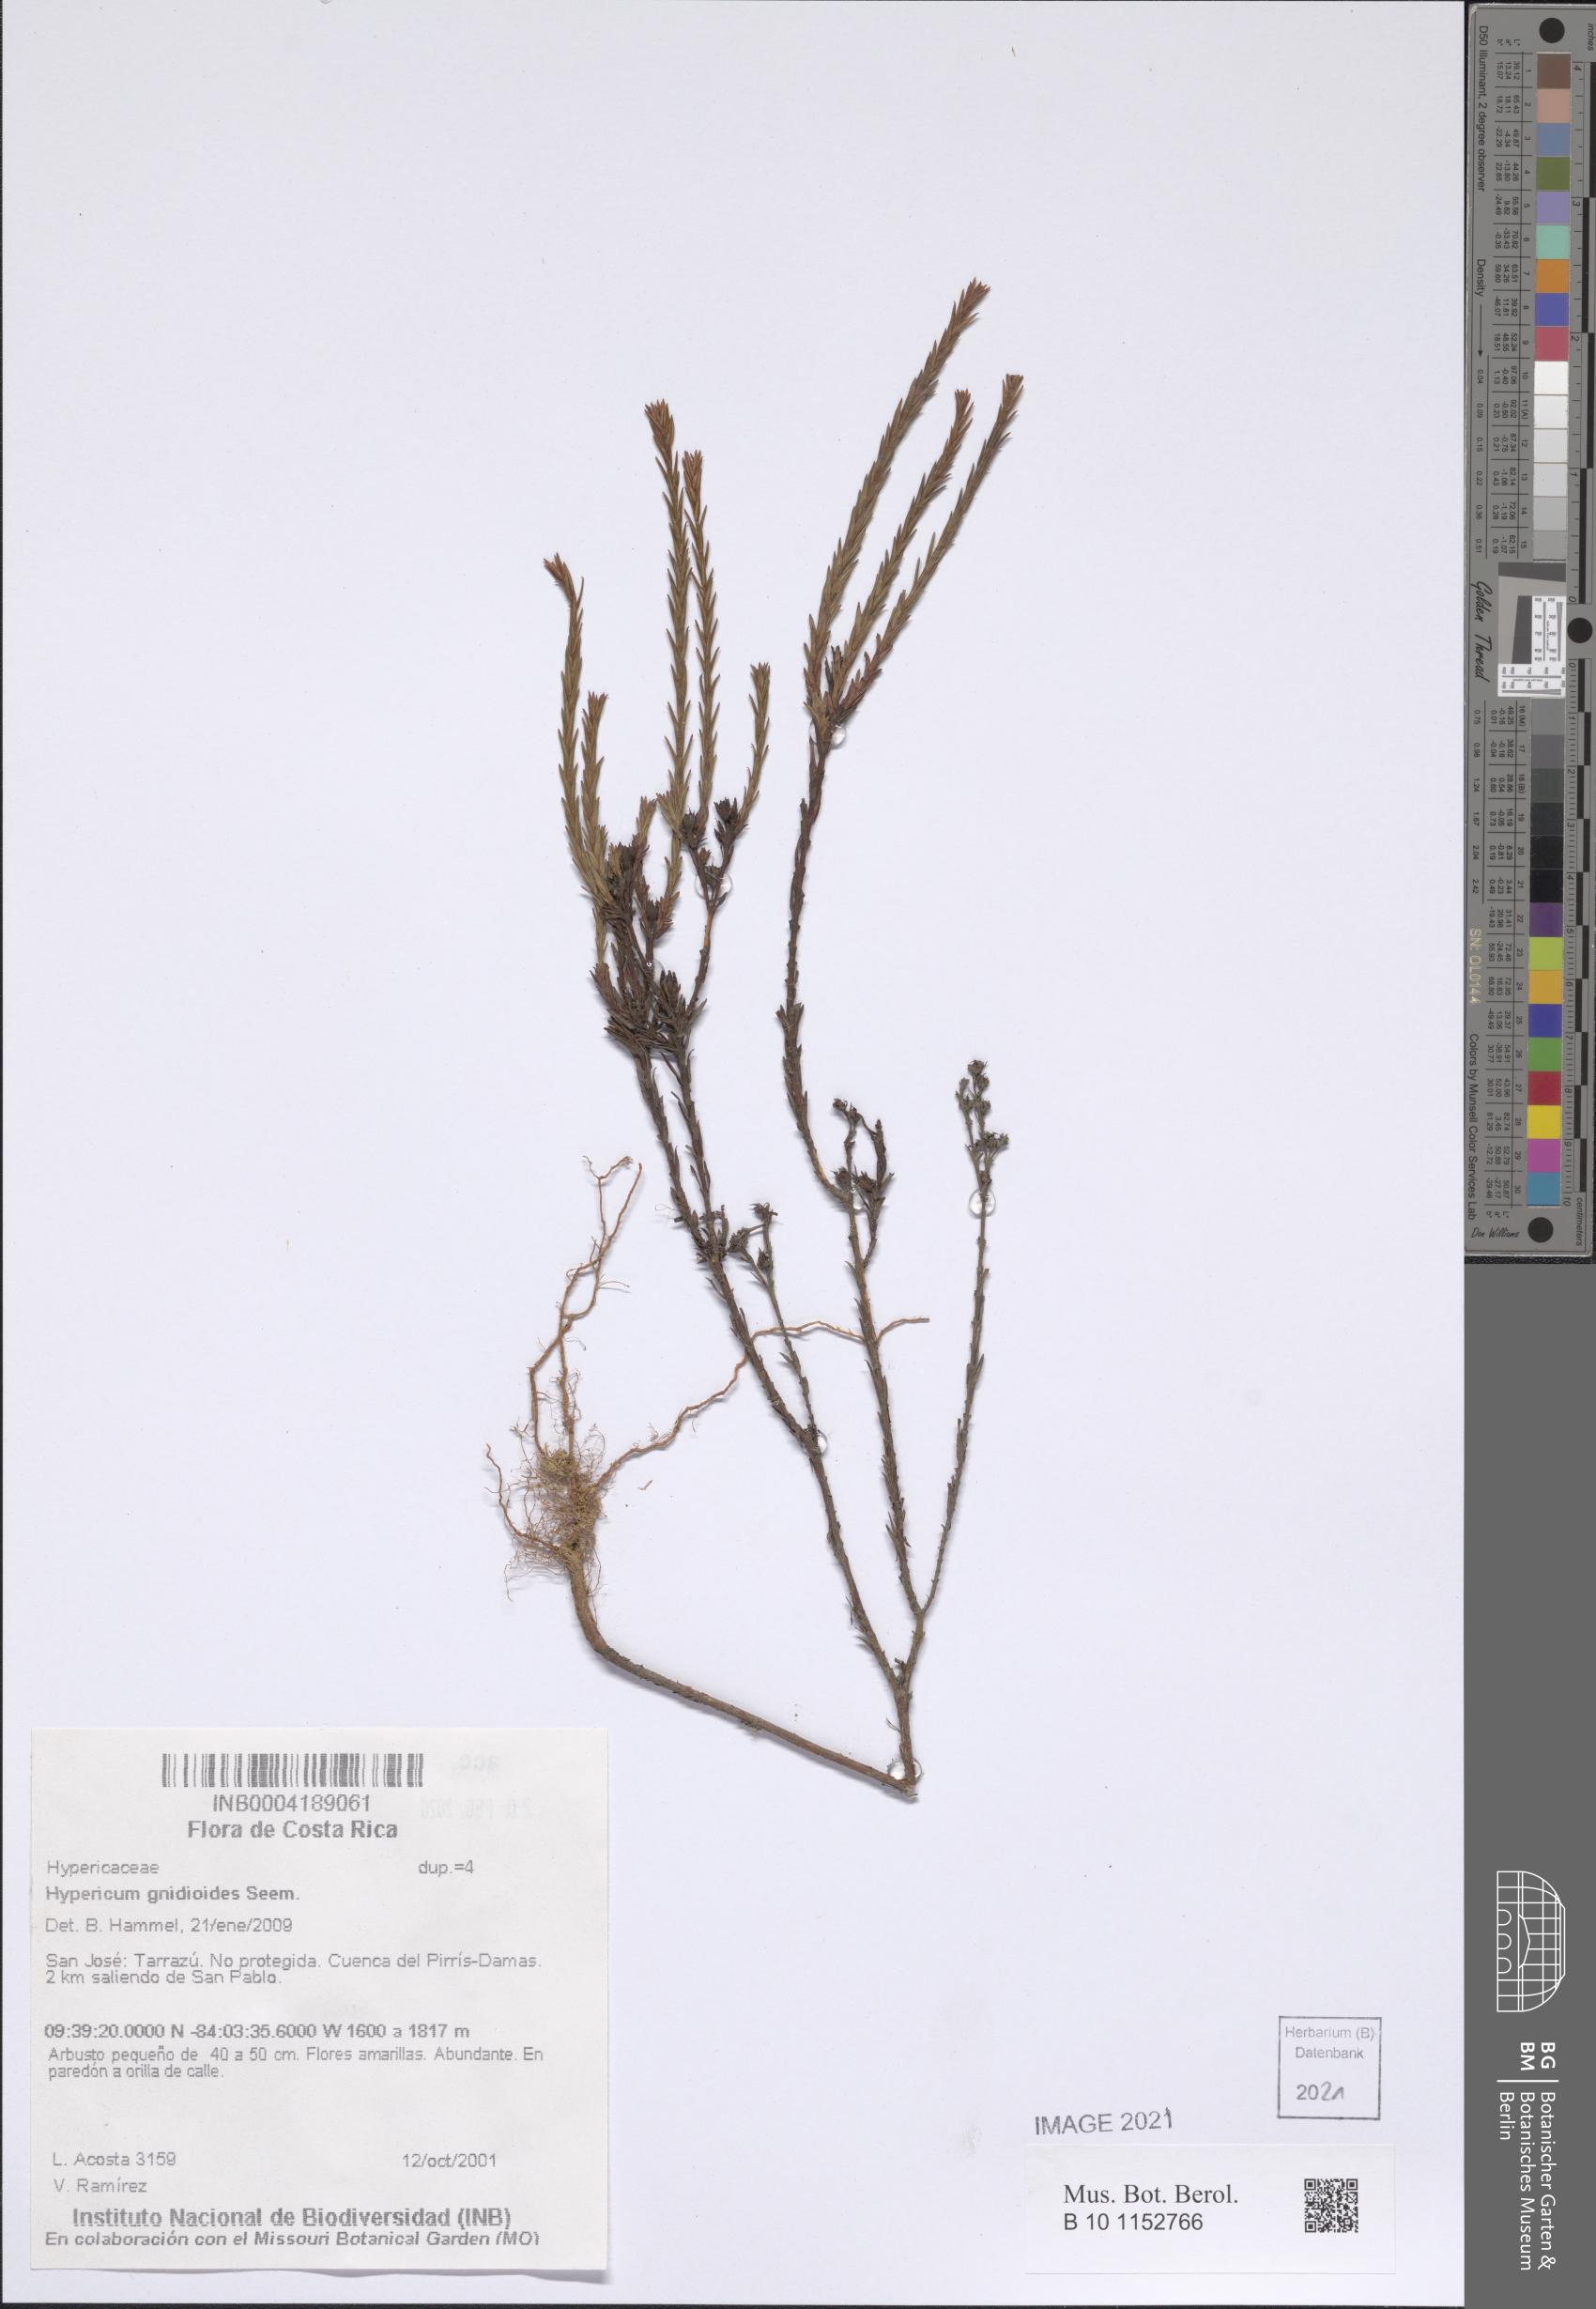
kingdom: Plantae
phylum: Tracheophyta
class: Magnoliopsida
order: Malpighiales
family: Hypericaceae
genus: Hypericum
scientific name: Hypericum gnidioides
